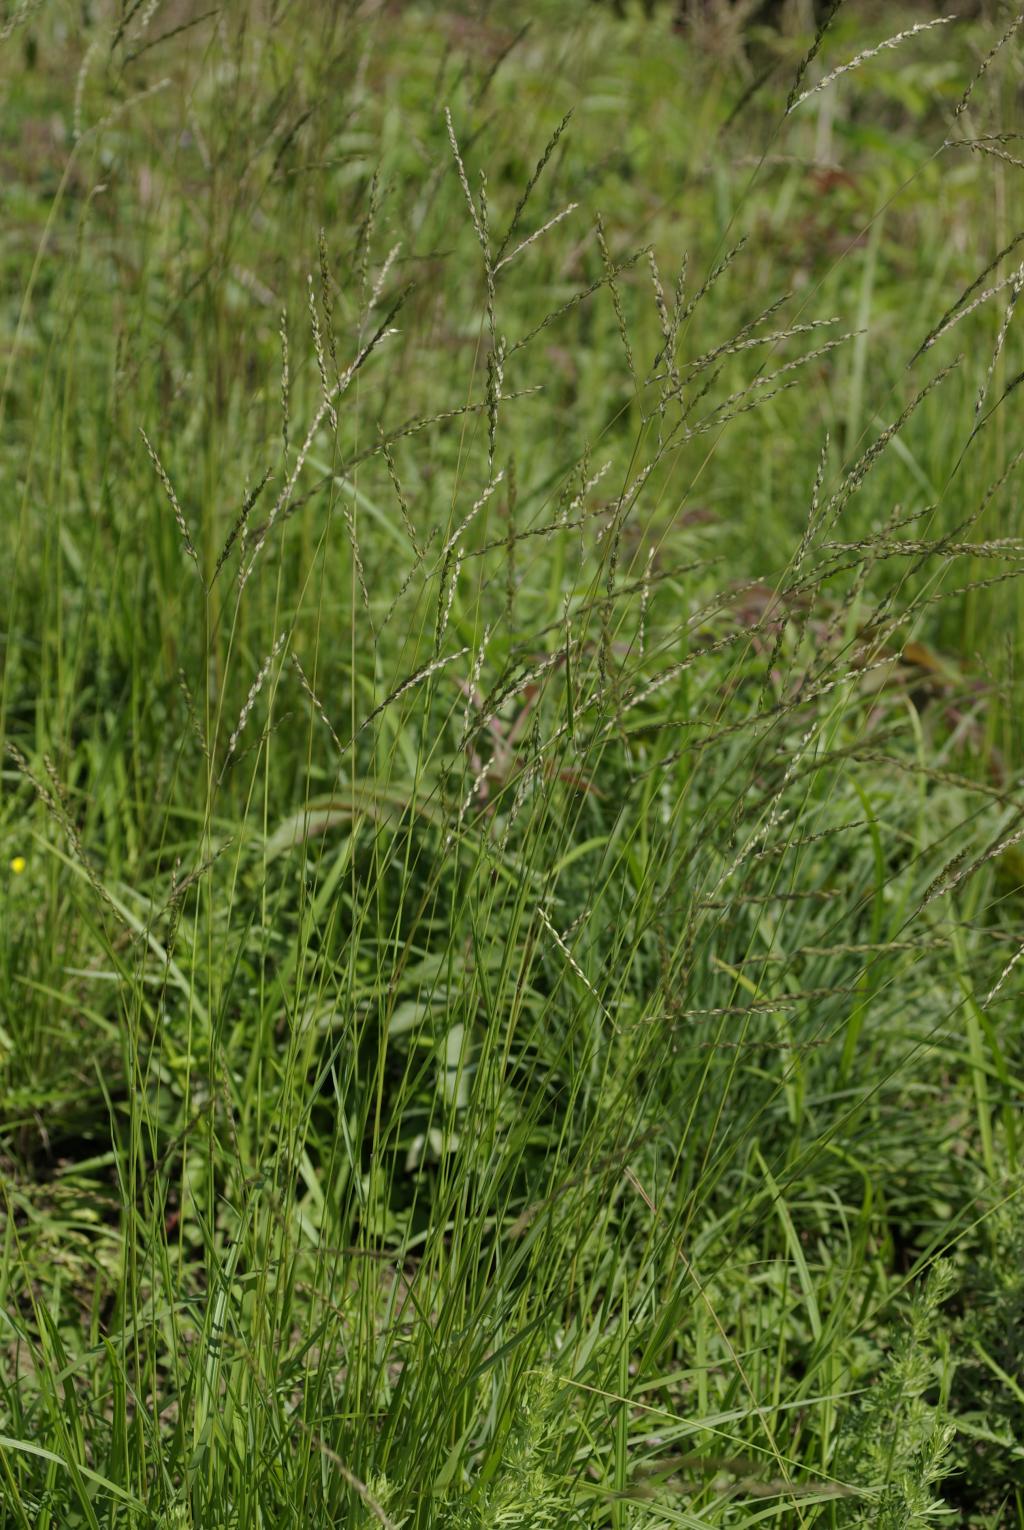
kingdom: Plantae
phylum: Tracheophyta
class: Liliopsida
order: Poales
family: Poaceae
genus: Alloteropsis
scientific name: Alloteropsis semialata
